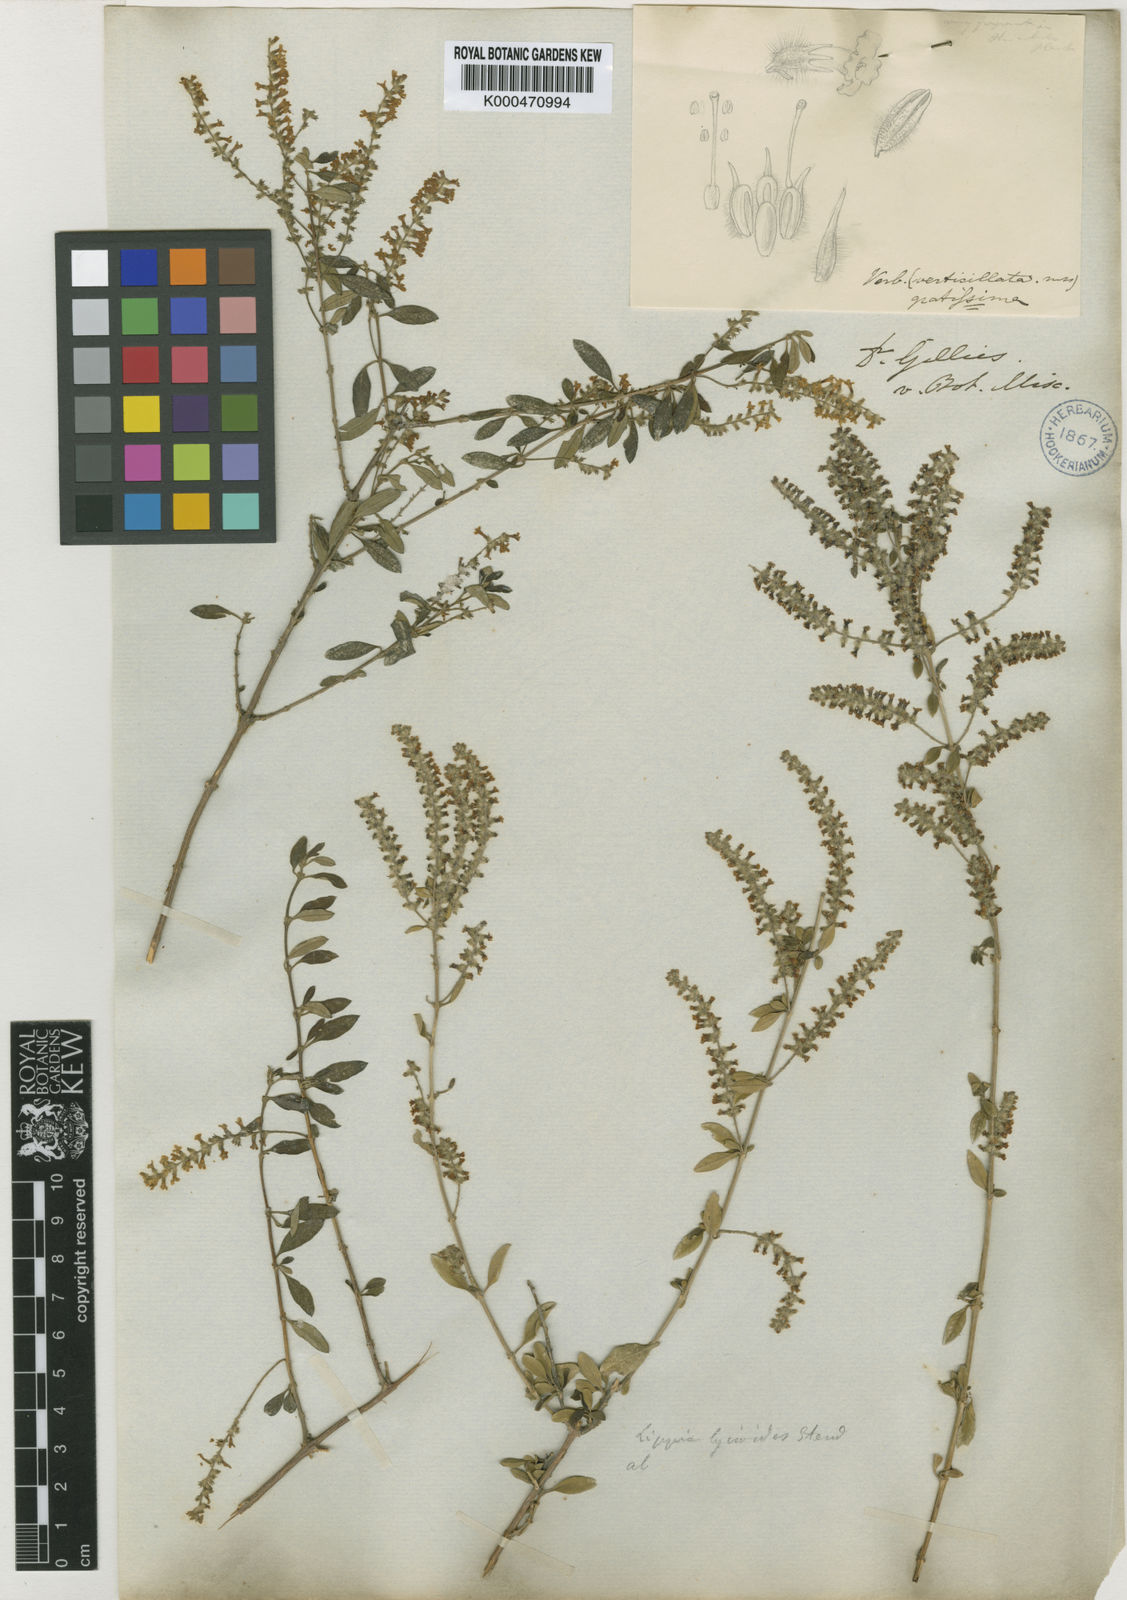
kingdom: Plantae
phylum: Tracheophyta
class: Magnoliopsida
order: Lamiales
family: Verbenaceae
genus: Aloysia
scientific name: Aloysia gratissima
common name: Common bee-brush
